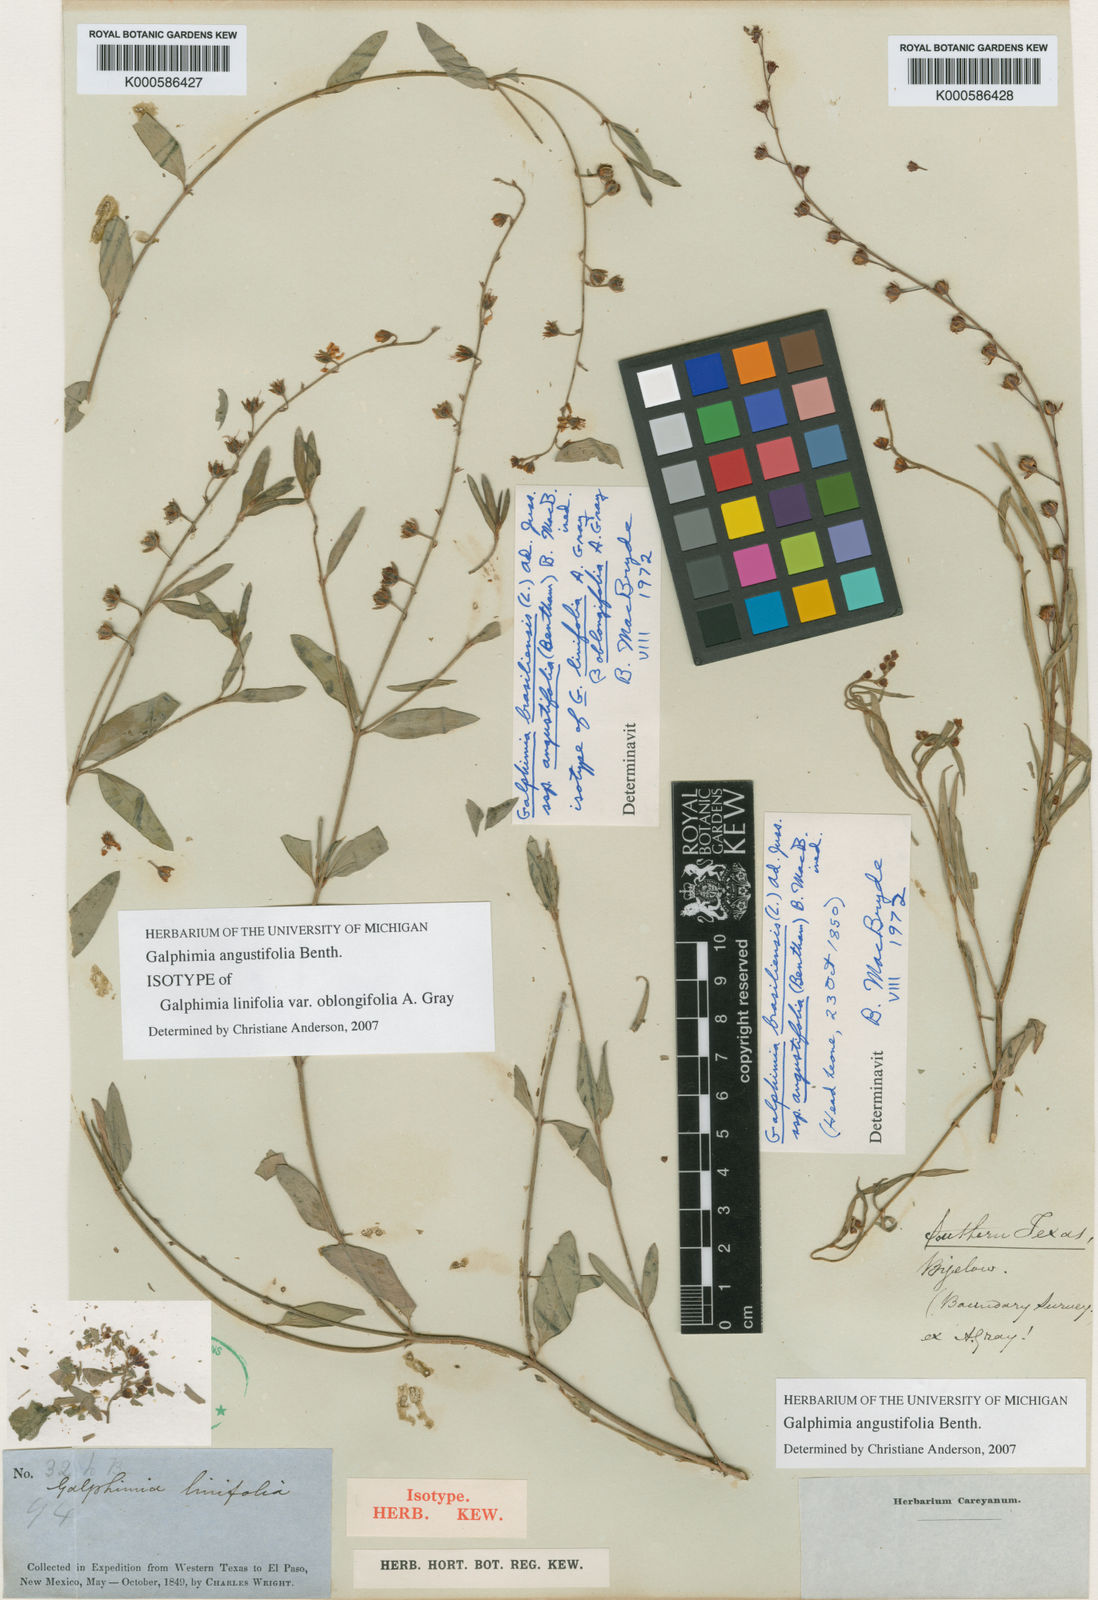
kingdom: Plantae
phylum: Tracheophyta
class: Magnoliopsida
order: Malpighiales
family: Malpighiaceae
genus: Galphimia
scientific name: Galphimia brasiliensis
